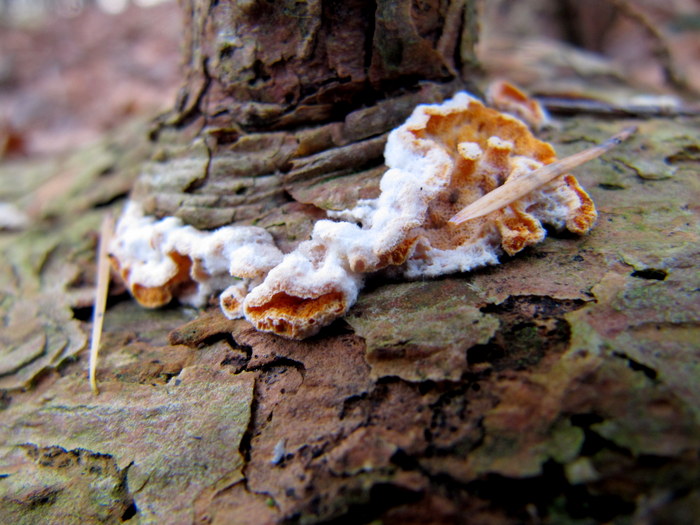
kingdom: Fungi
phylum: Basidiomycota
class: Agaricomycetes
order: Polyporales
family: Incrustoporiaceae
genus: Skeletocutis
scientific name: Skeletocutis amorpha
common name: orange krystalporesvamp
